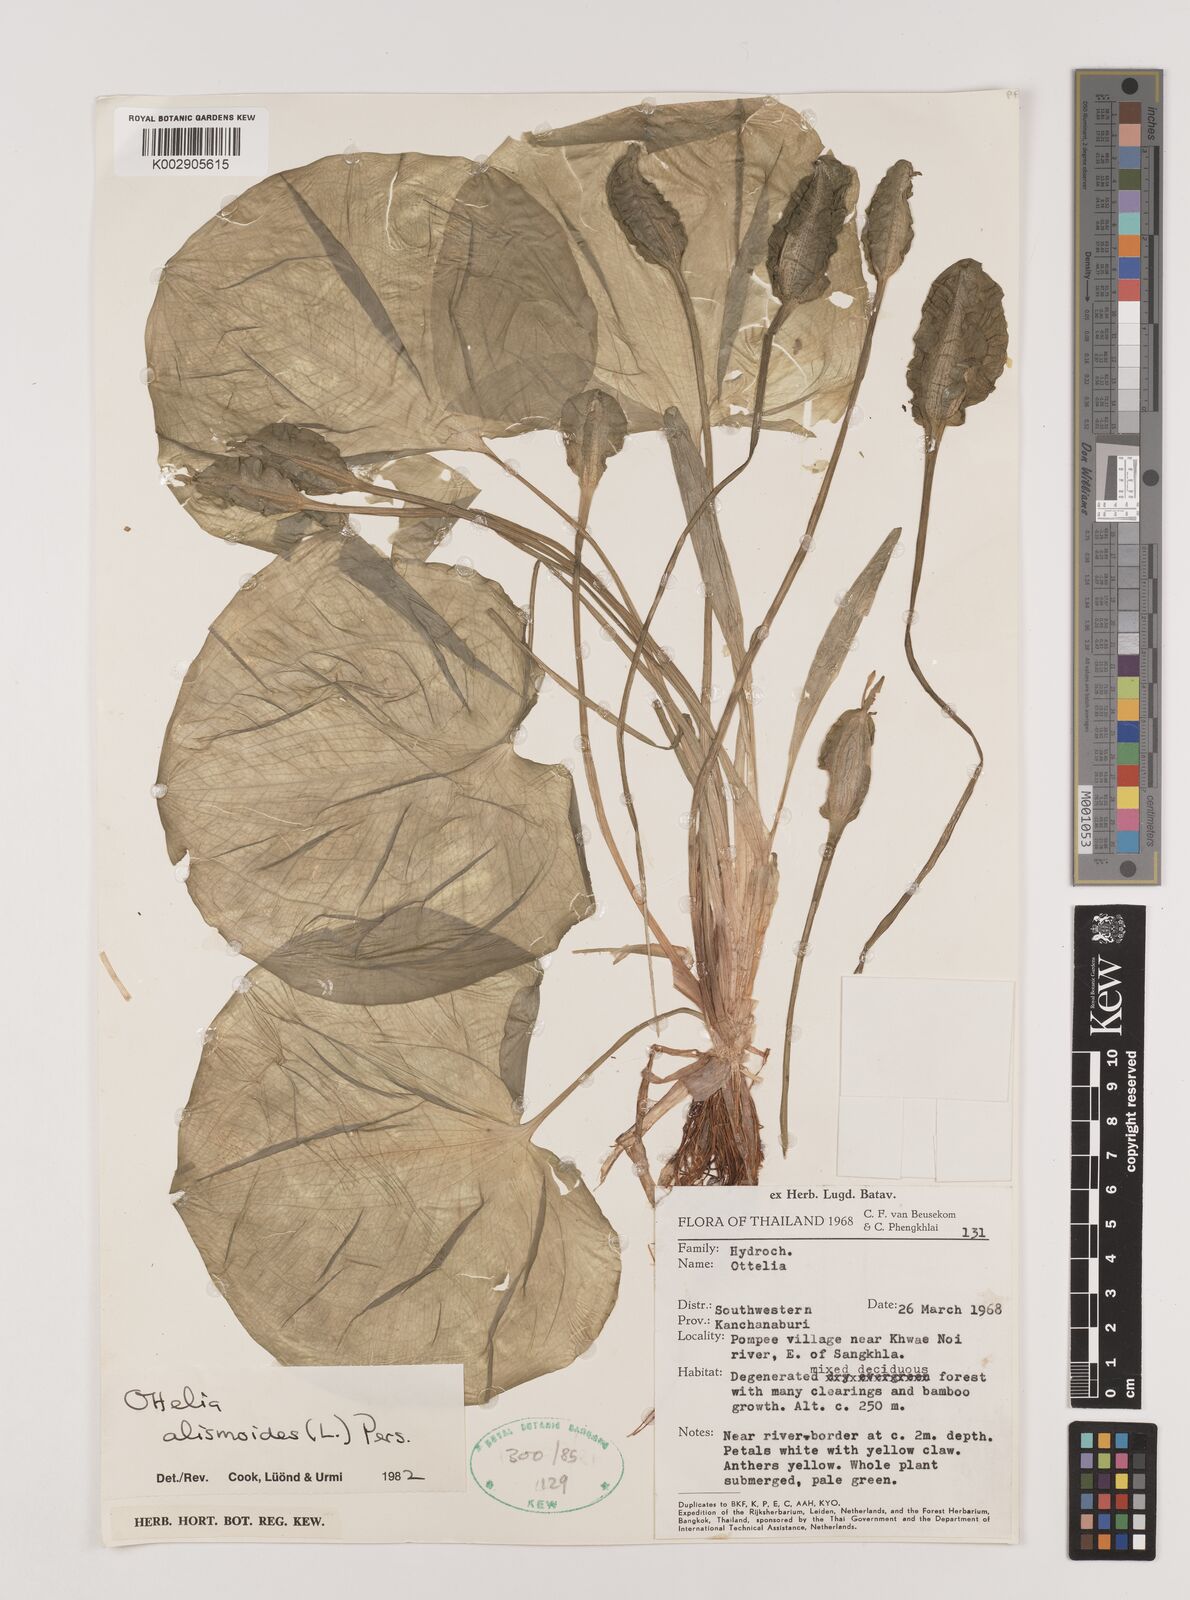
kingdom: Plantae
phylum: Tracheophyta
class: Liliopsida
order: Alismatales
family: Hydrocharitaceae
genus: Ottelia
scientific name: Ottelia alismoides
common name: Duck-lettuce
